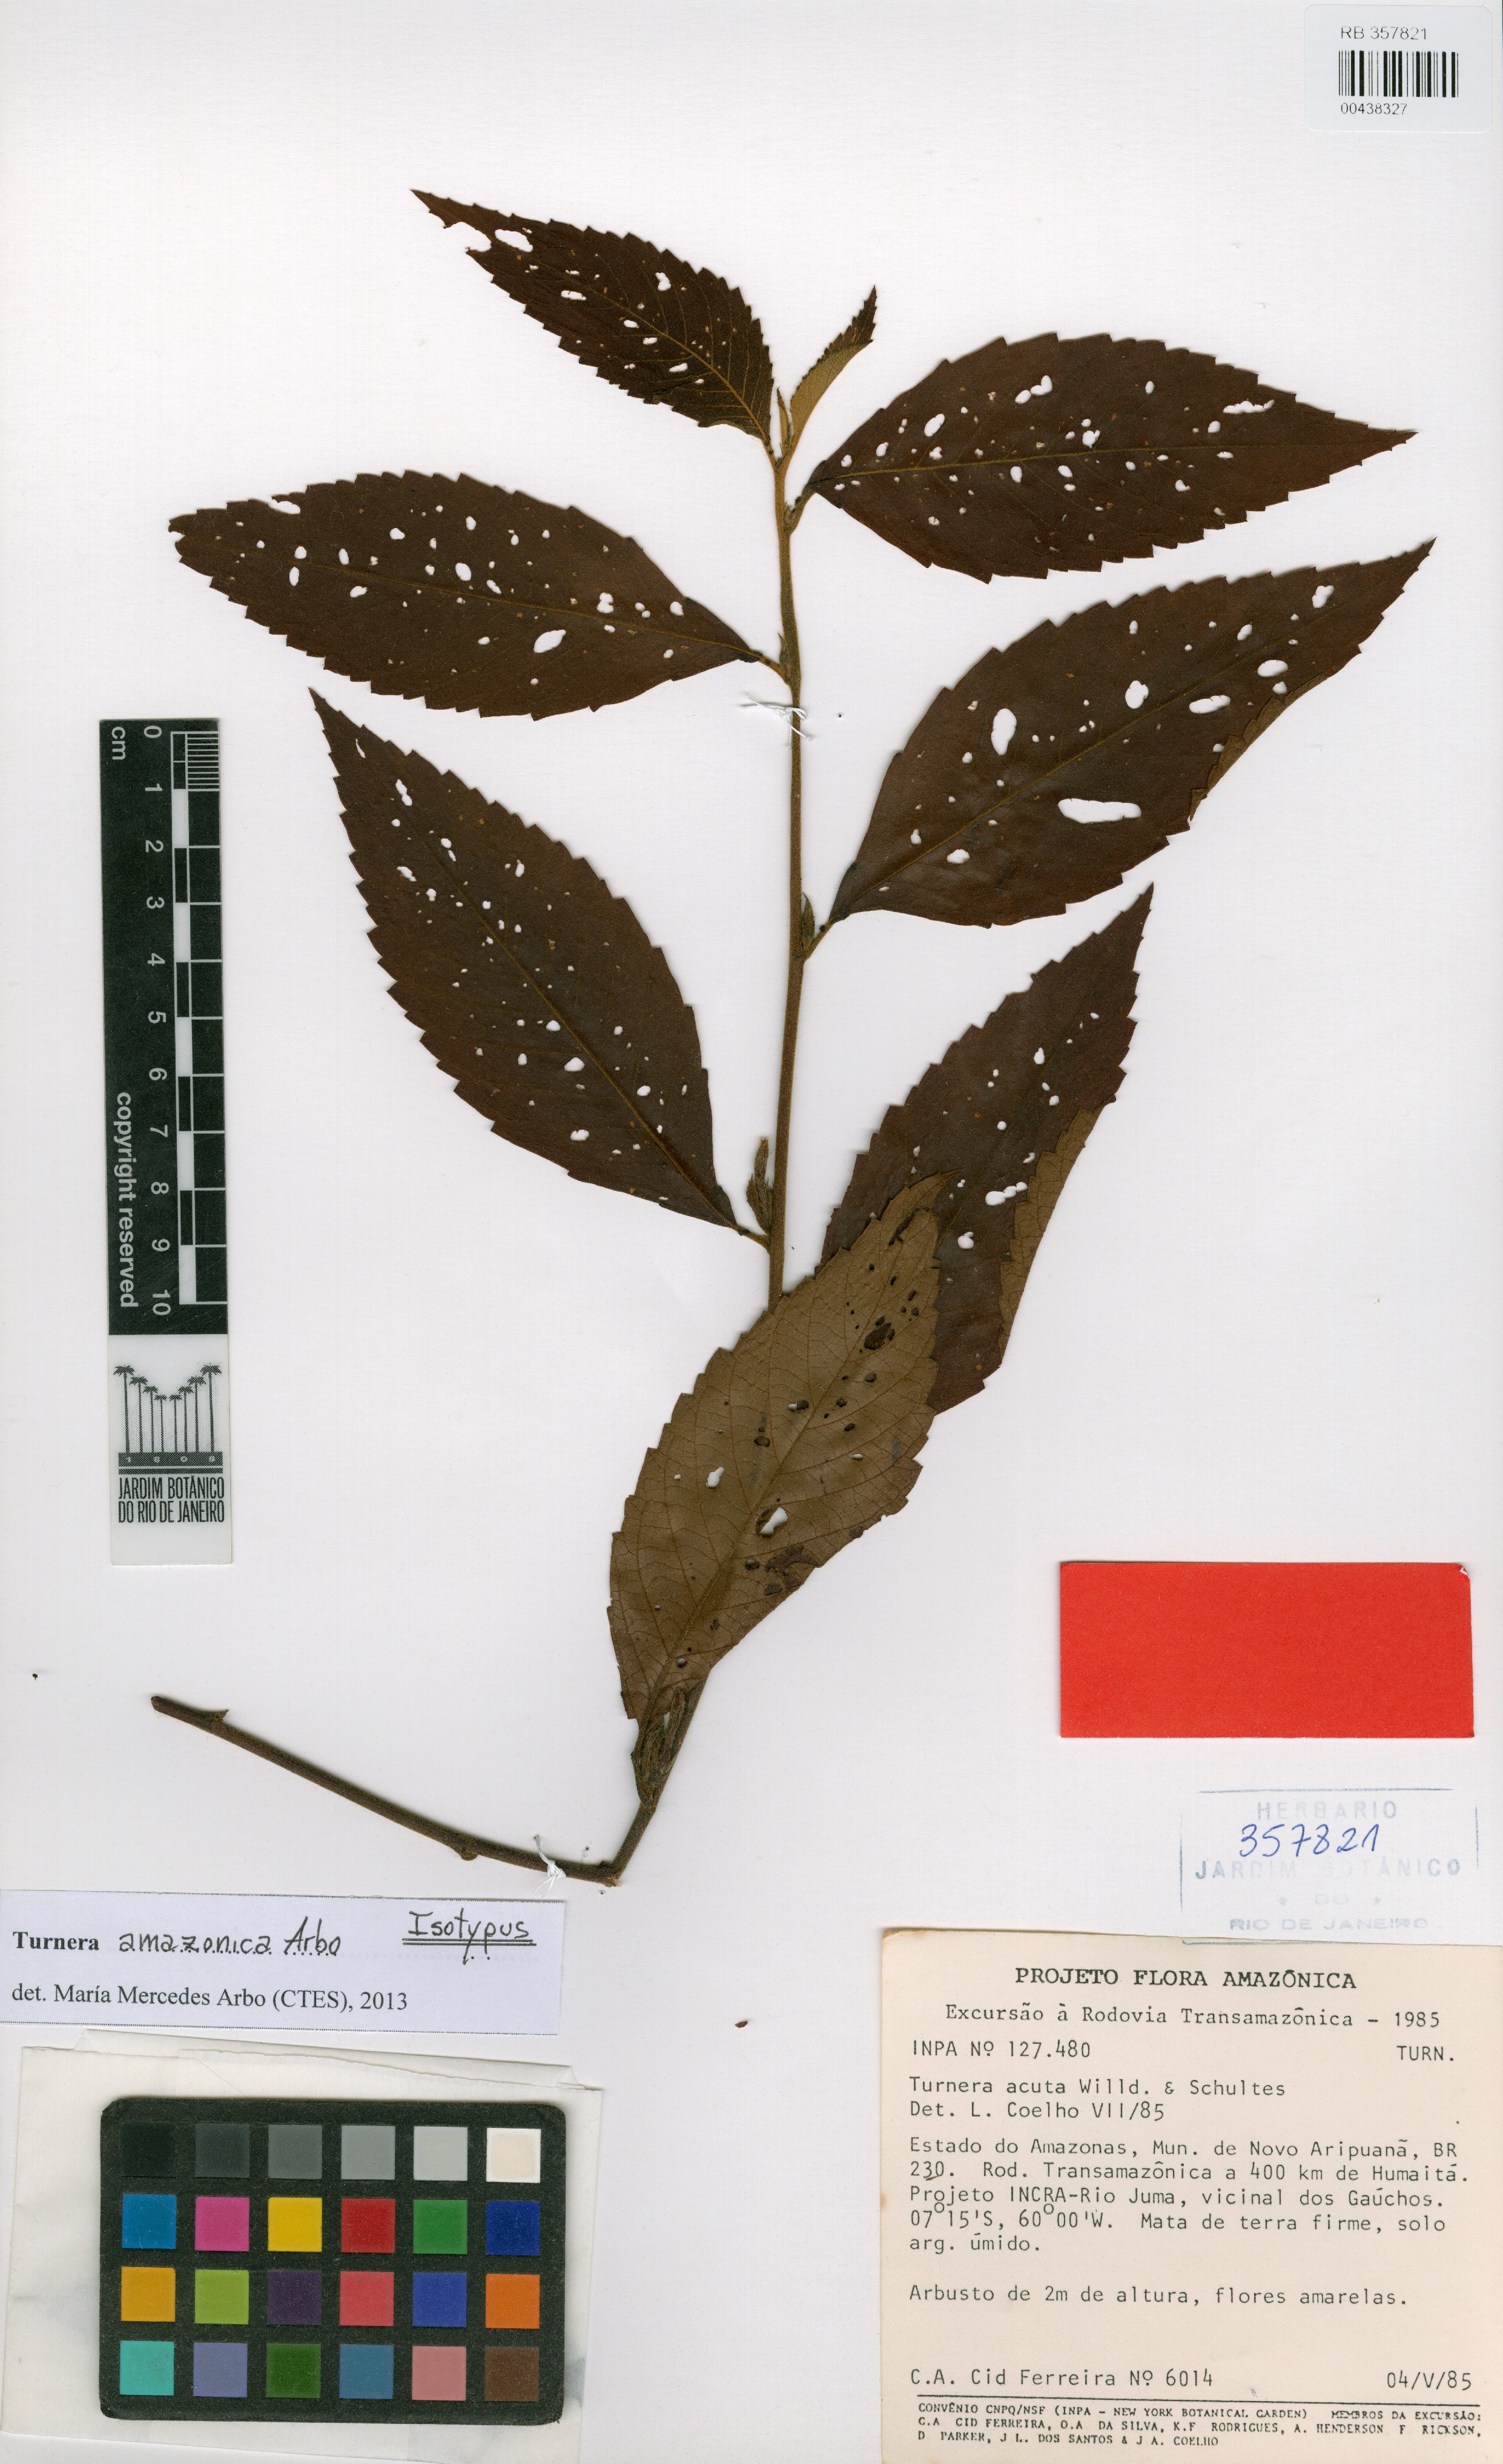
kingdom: Plantae
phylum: Tracheophyta
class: Magnoliopsida
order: Malpighiales
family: Turneraceae
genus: Turnera
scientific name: Turnera amazonica
